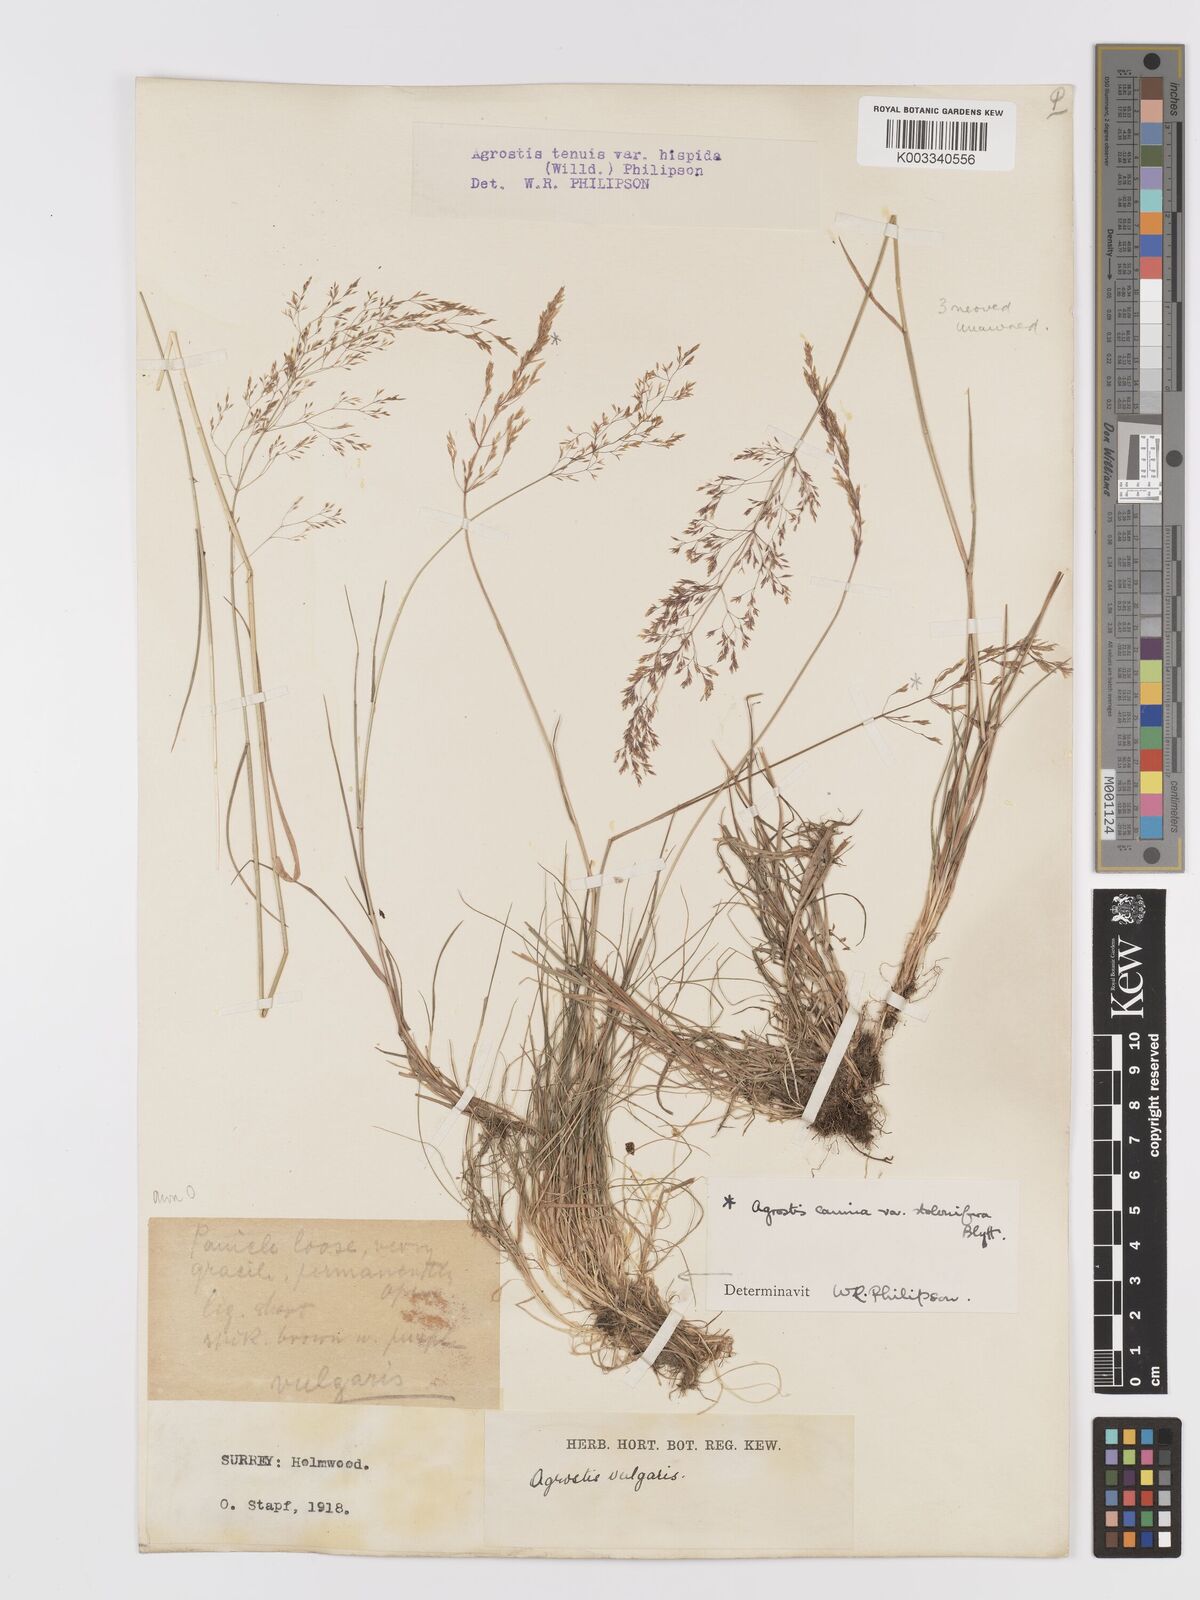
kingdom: Plantae
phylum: Tracheophyta
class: Liliopsida
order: Poales
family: Poaceae
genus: Agrostis
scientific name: Agrostis capillaris
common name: Colonial bentgrass
